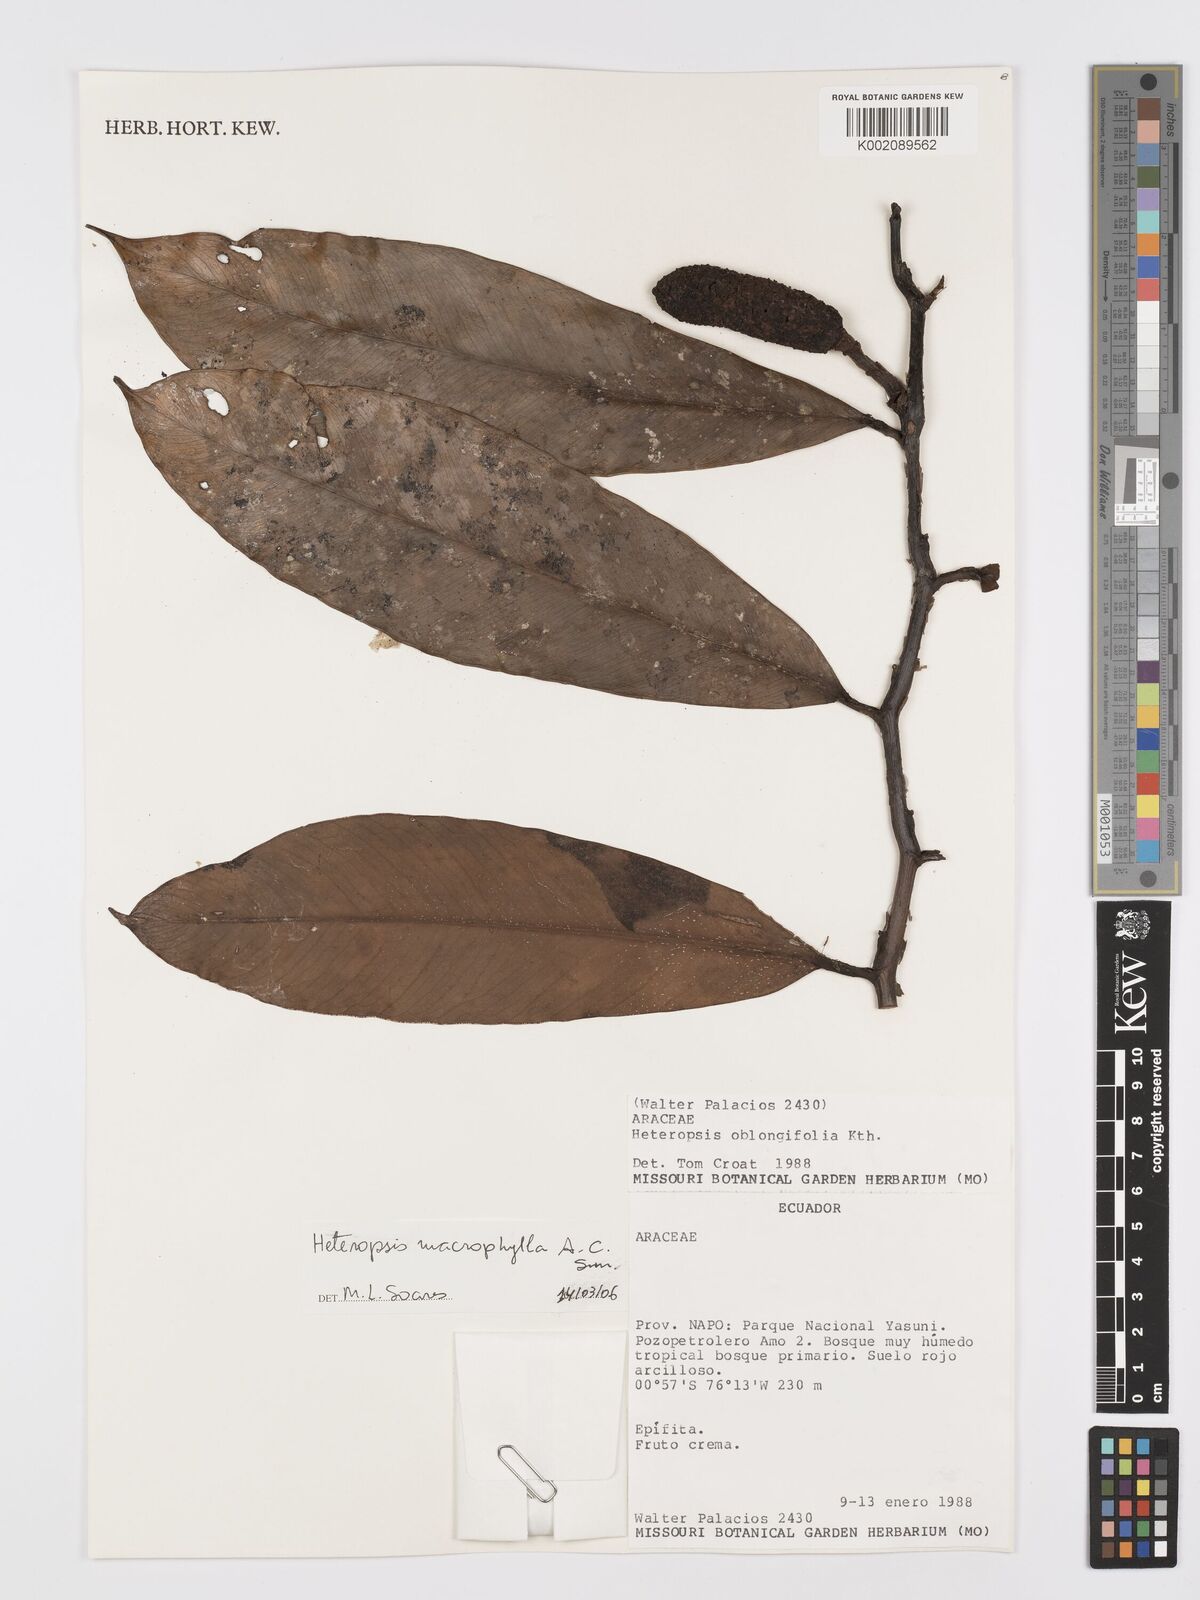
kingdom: Plantae
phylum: Tracheophyta
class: Liliopsida
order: Alismatales
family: Araceae
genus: Heteropsis
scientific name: Heteropsis macrophylla
